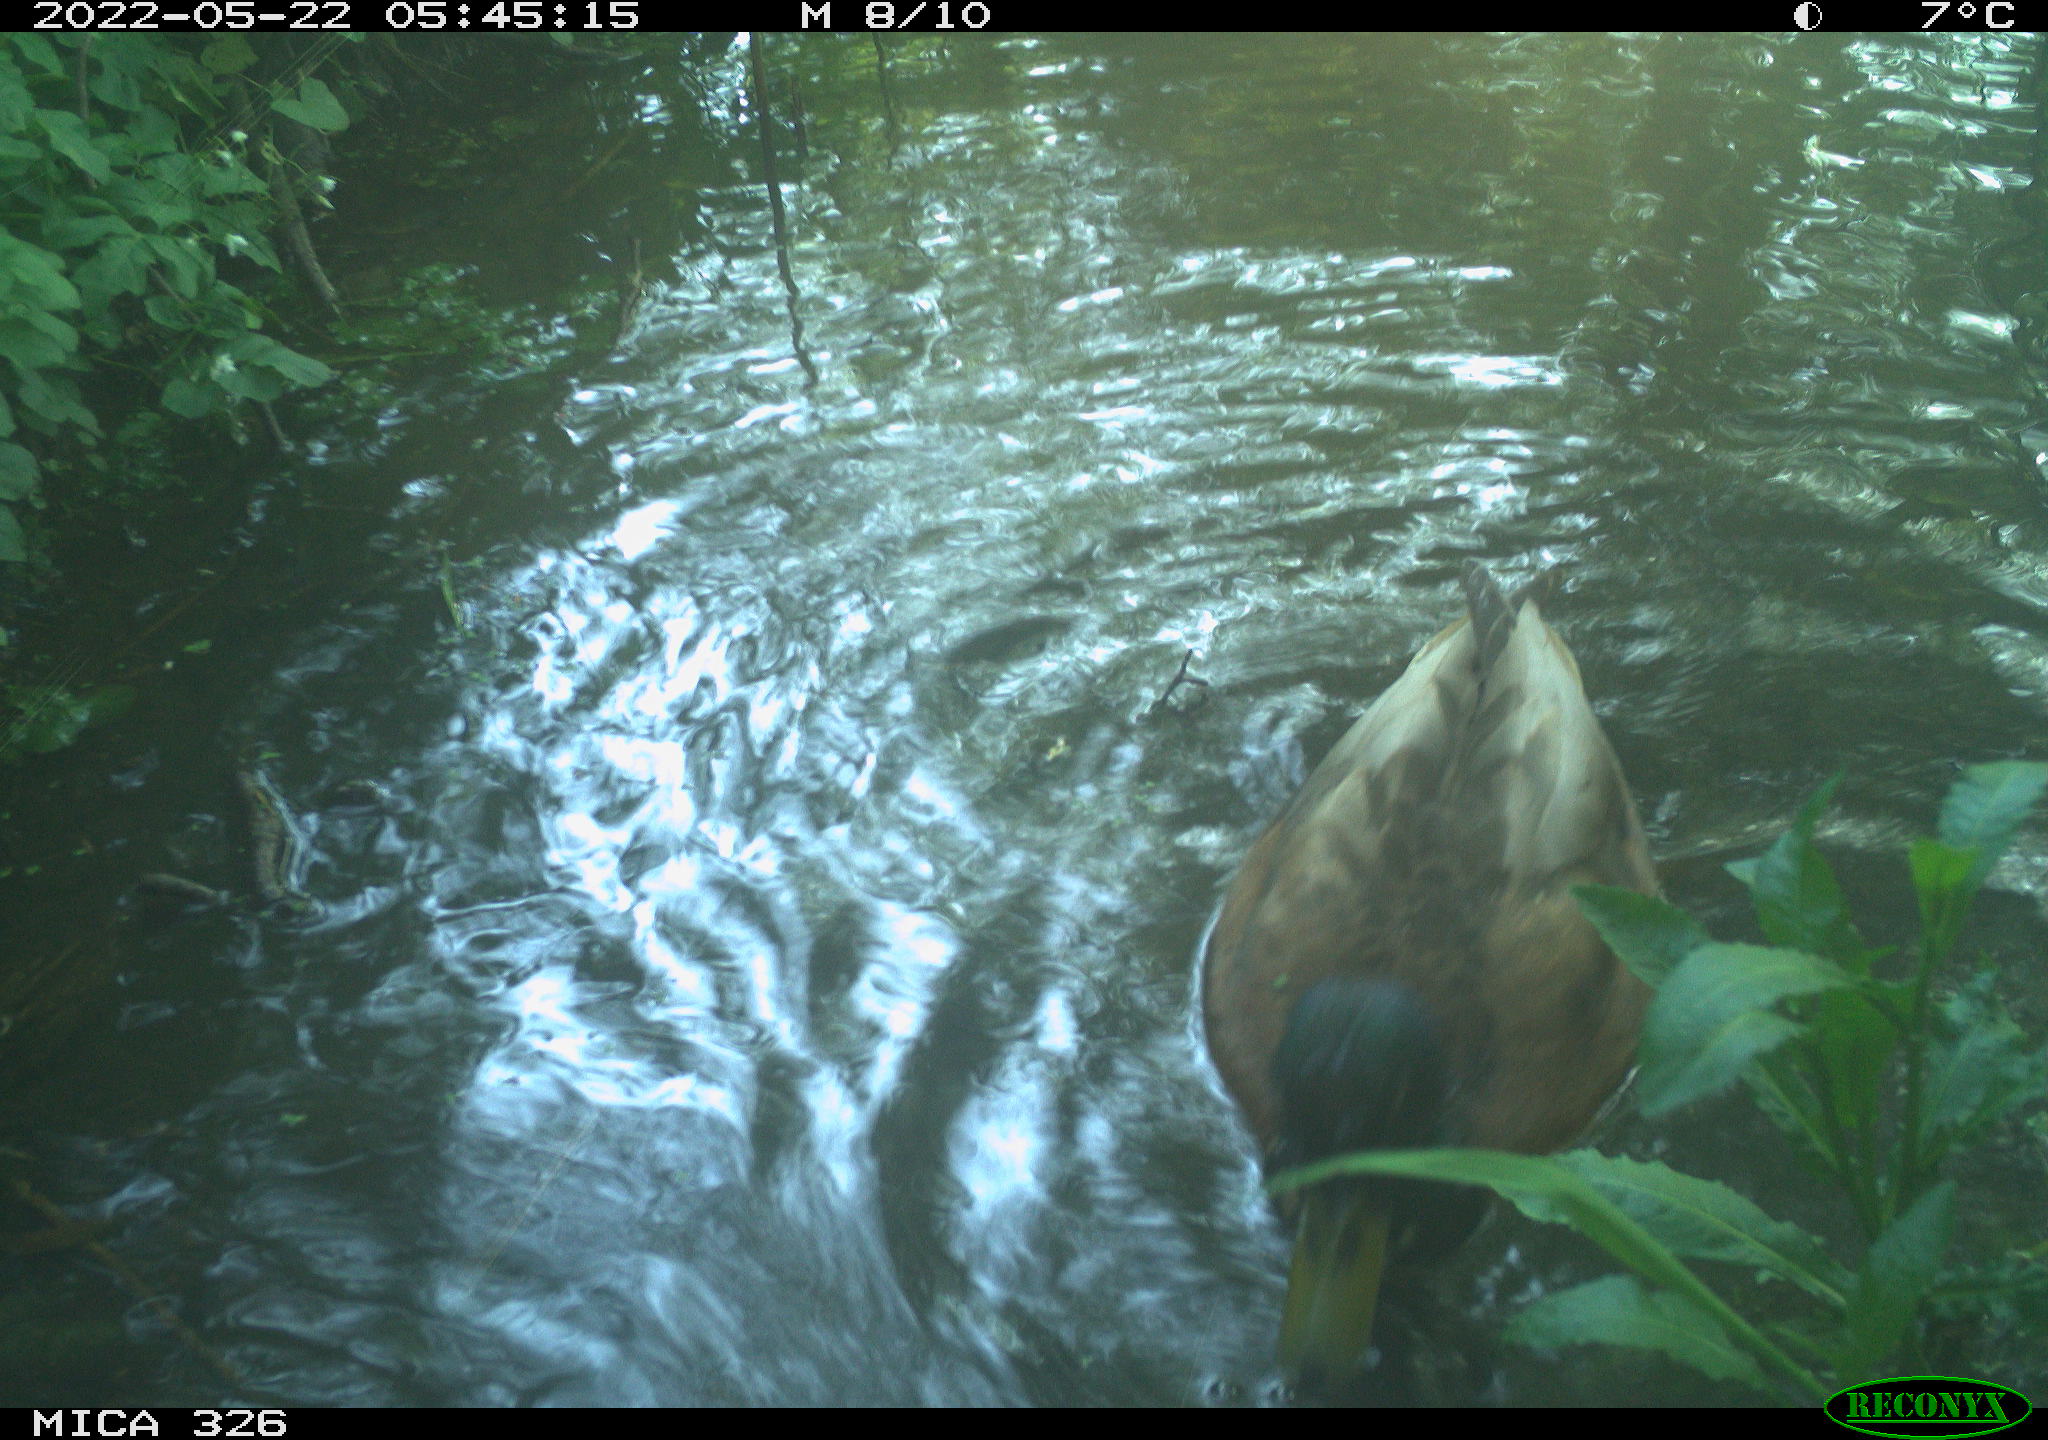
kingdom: Animalia
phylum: Chordata
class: Aves
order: Anseriformes
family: Anatidae
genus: Anas
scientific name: Anas
